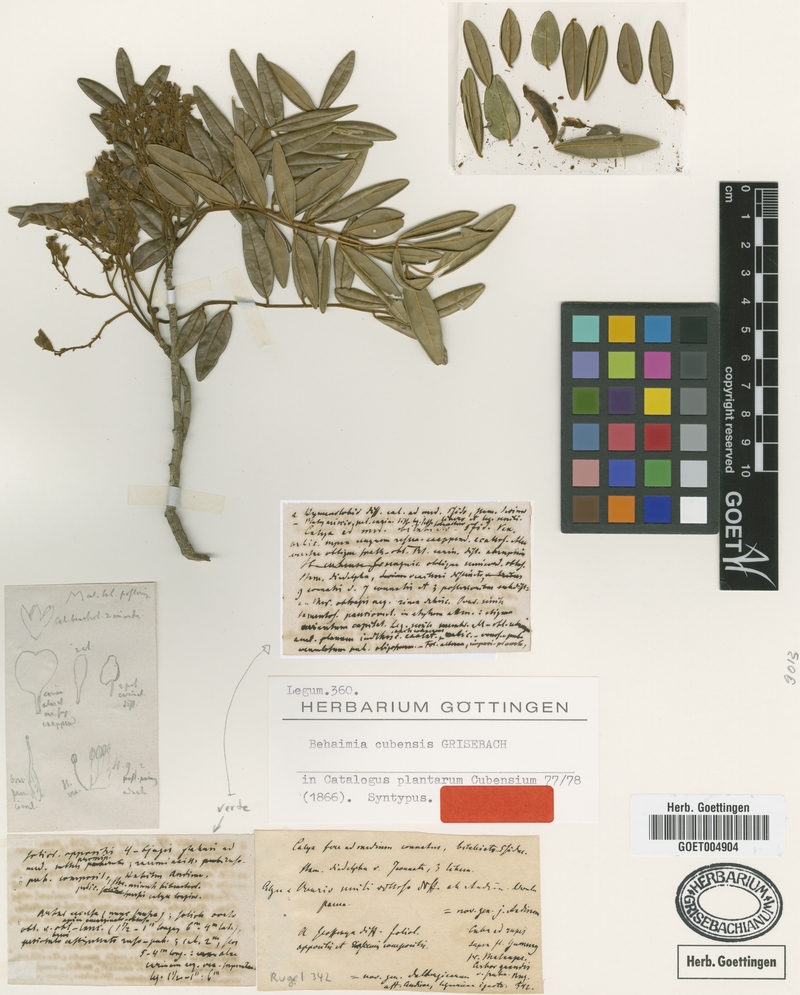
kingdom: Plantae
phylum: Tracheophyta
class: Magnoliopsida
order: Fabales
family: Fabaceae
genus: Behaimia
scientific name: Behaimia cubensis
